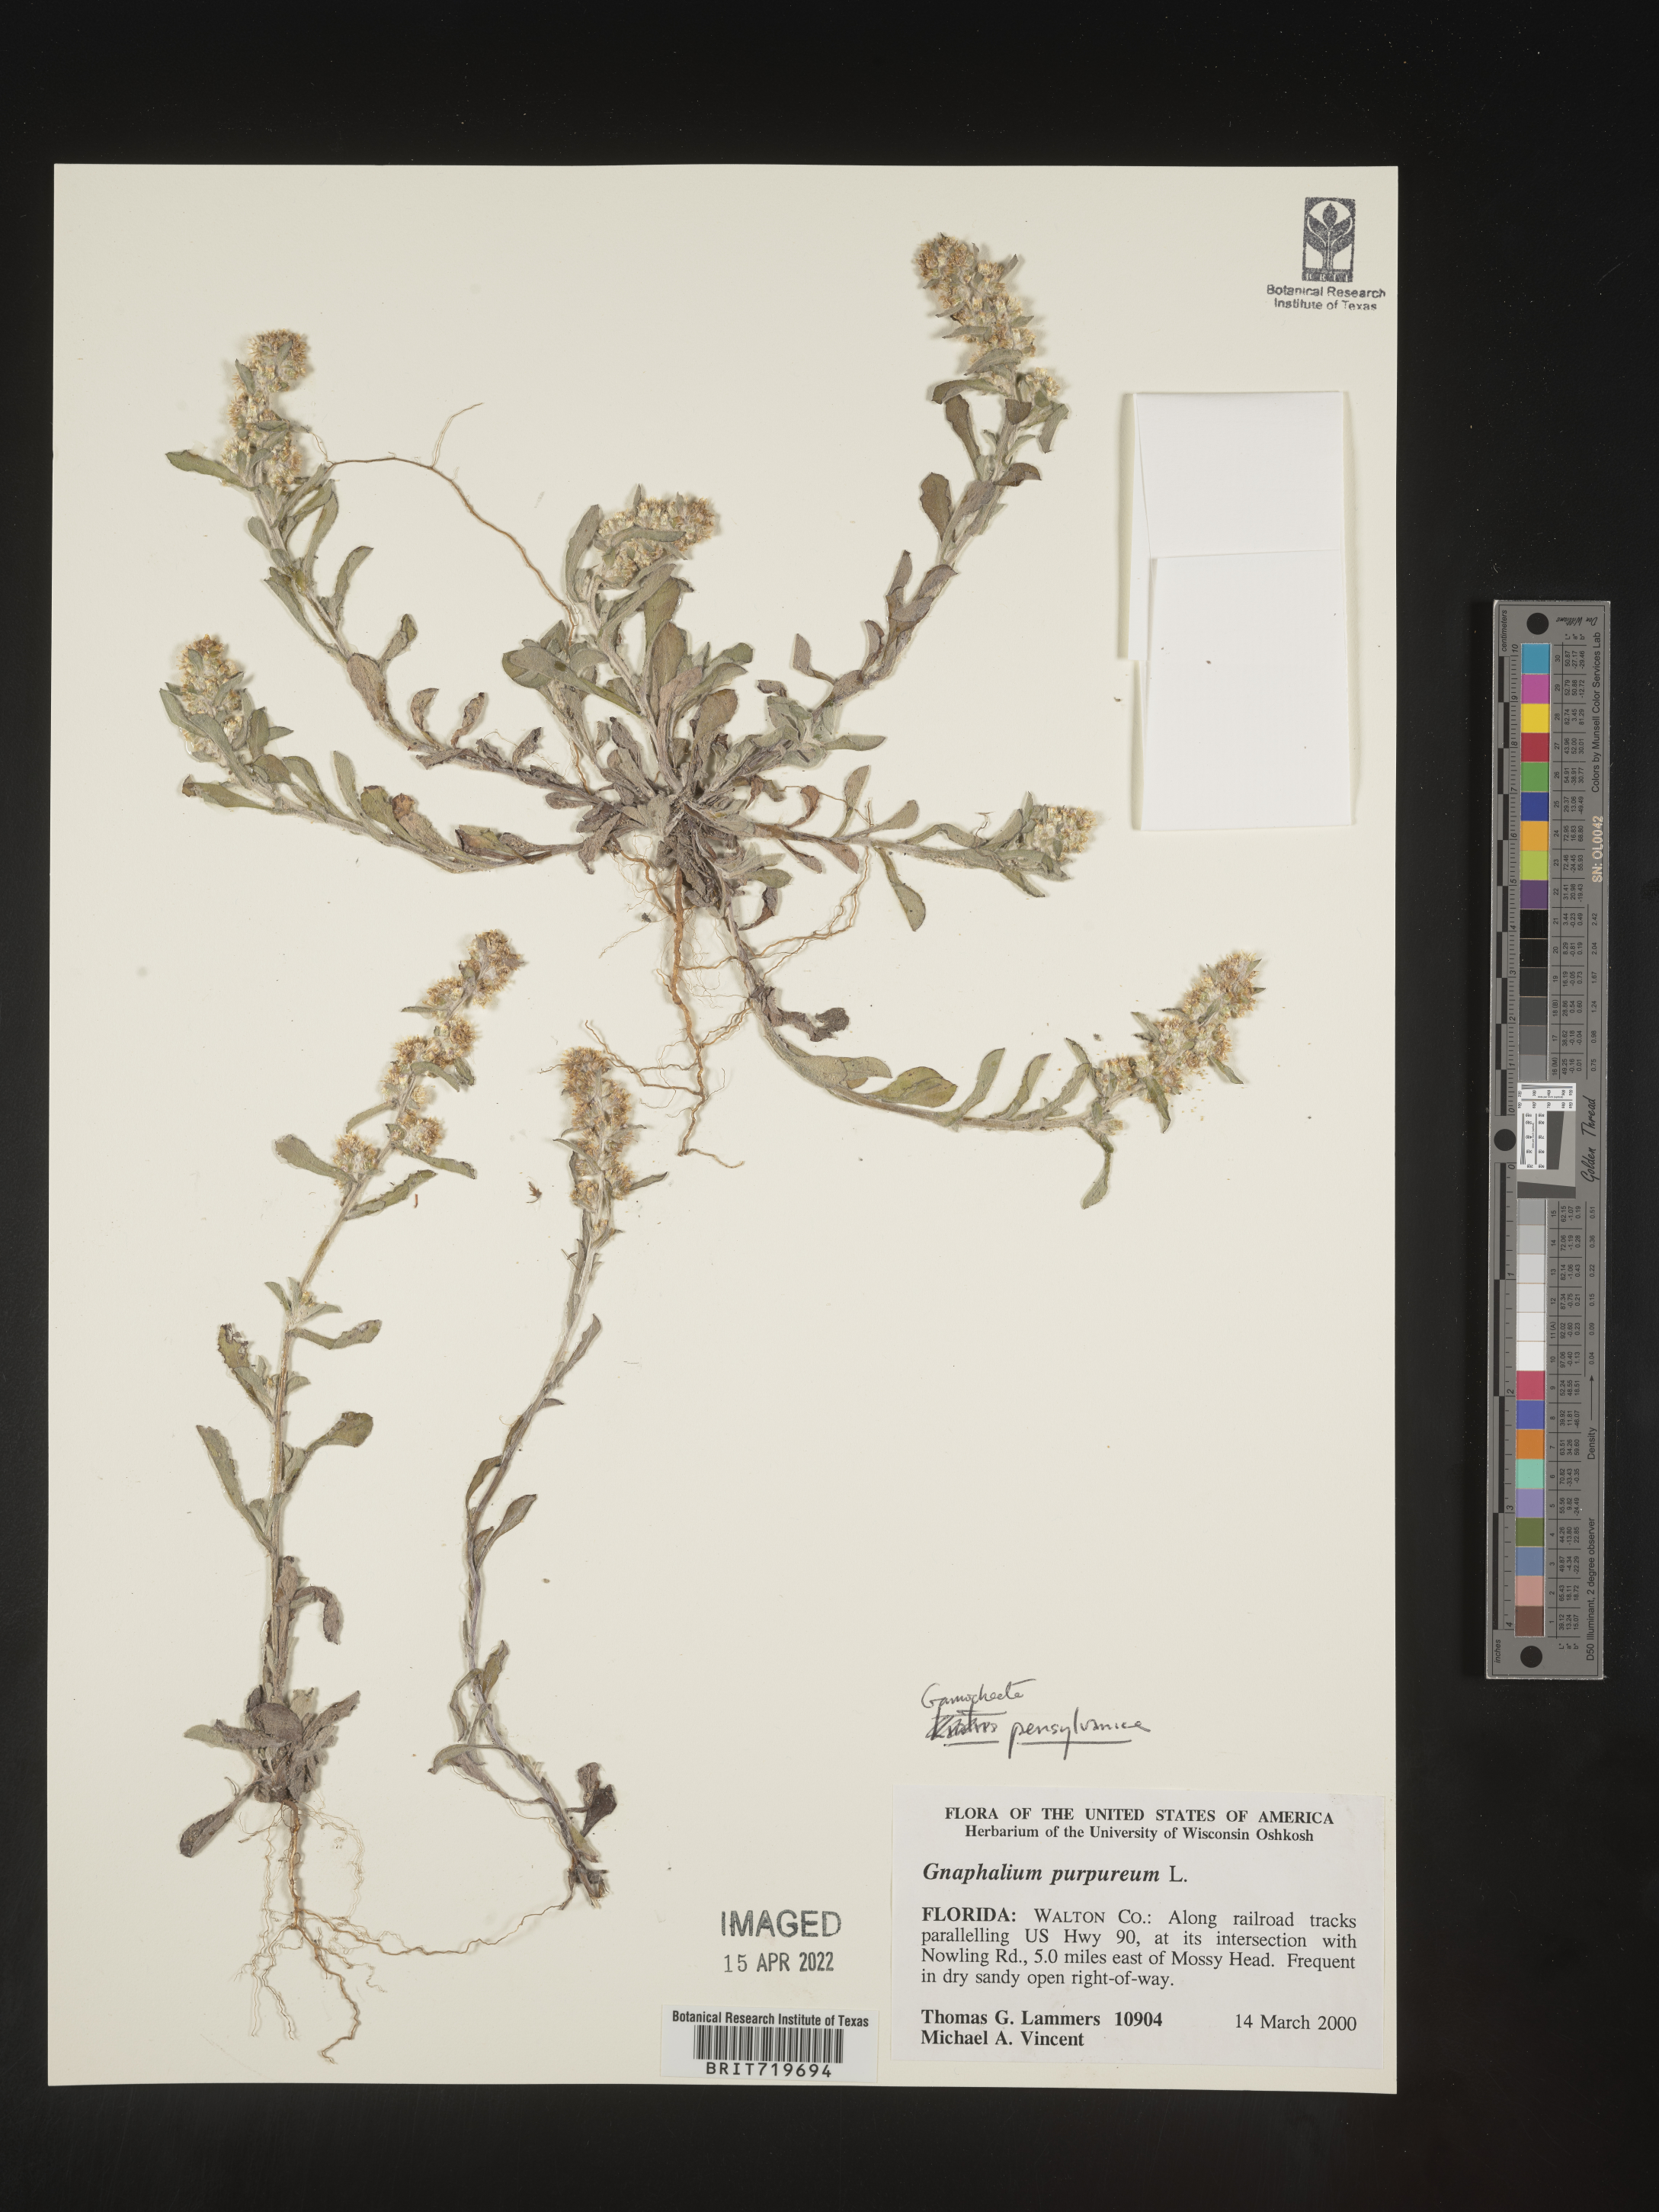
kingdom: Plantae
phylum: Tracheophyta
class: Magnoliopsida
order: Asterales
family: Asteraceae
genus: Gamochaeta
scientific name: Gamochaeta pensylvanica
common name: Pennsylvania everlasting
